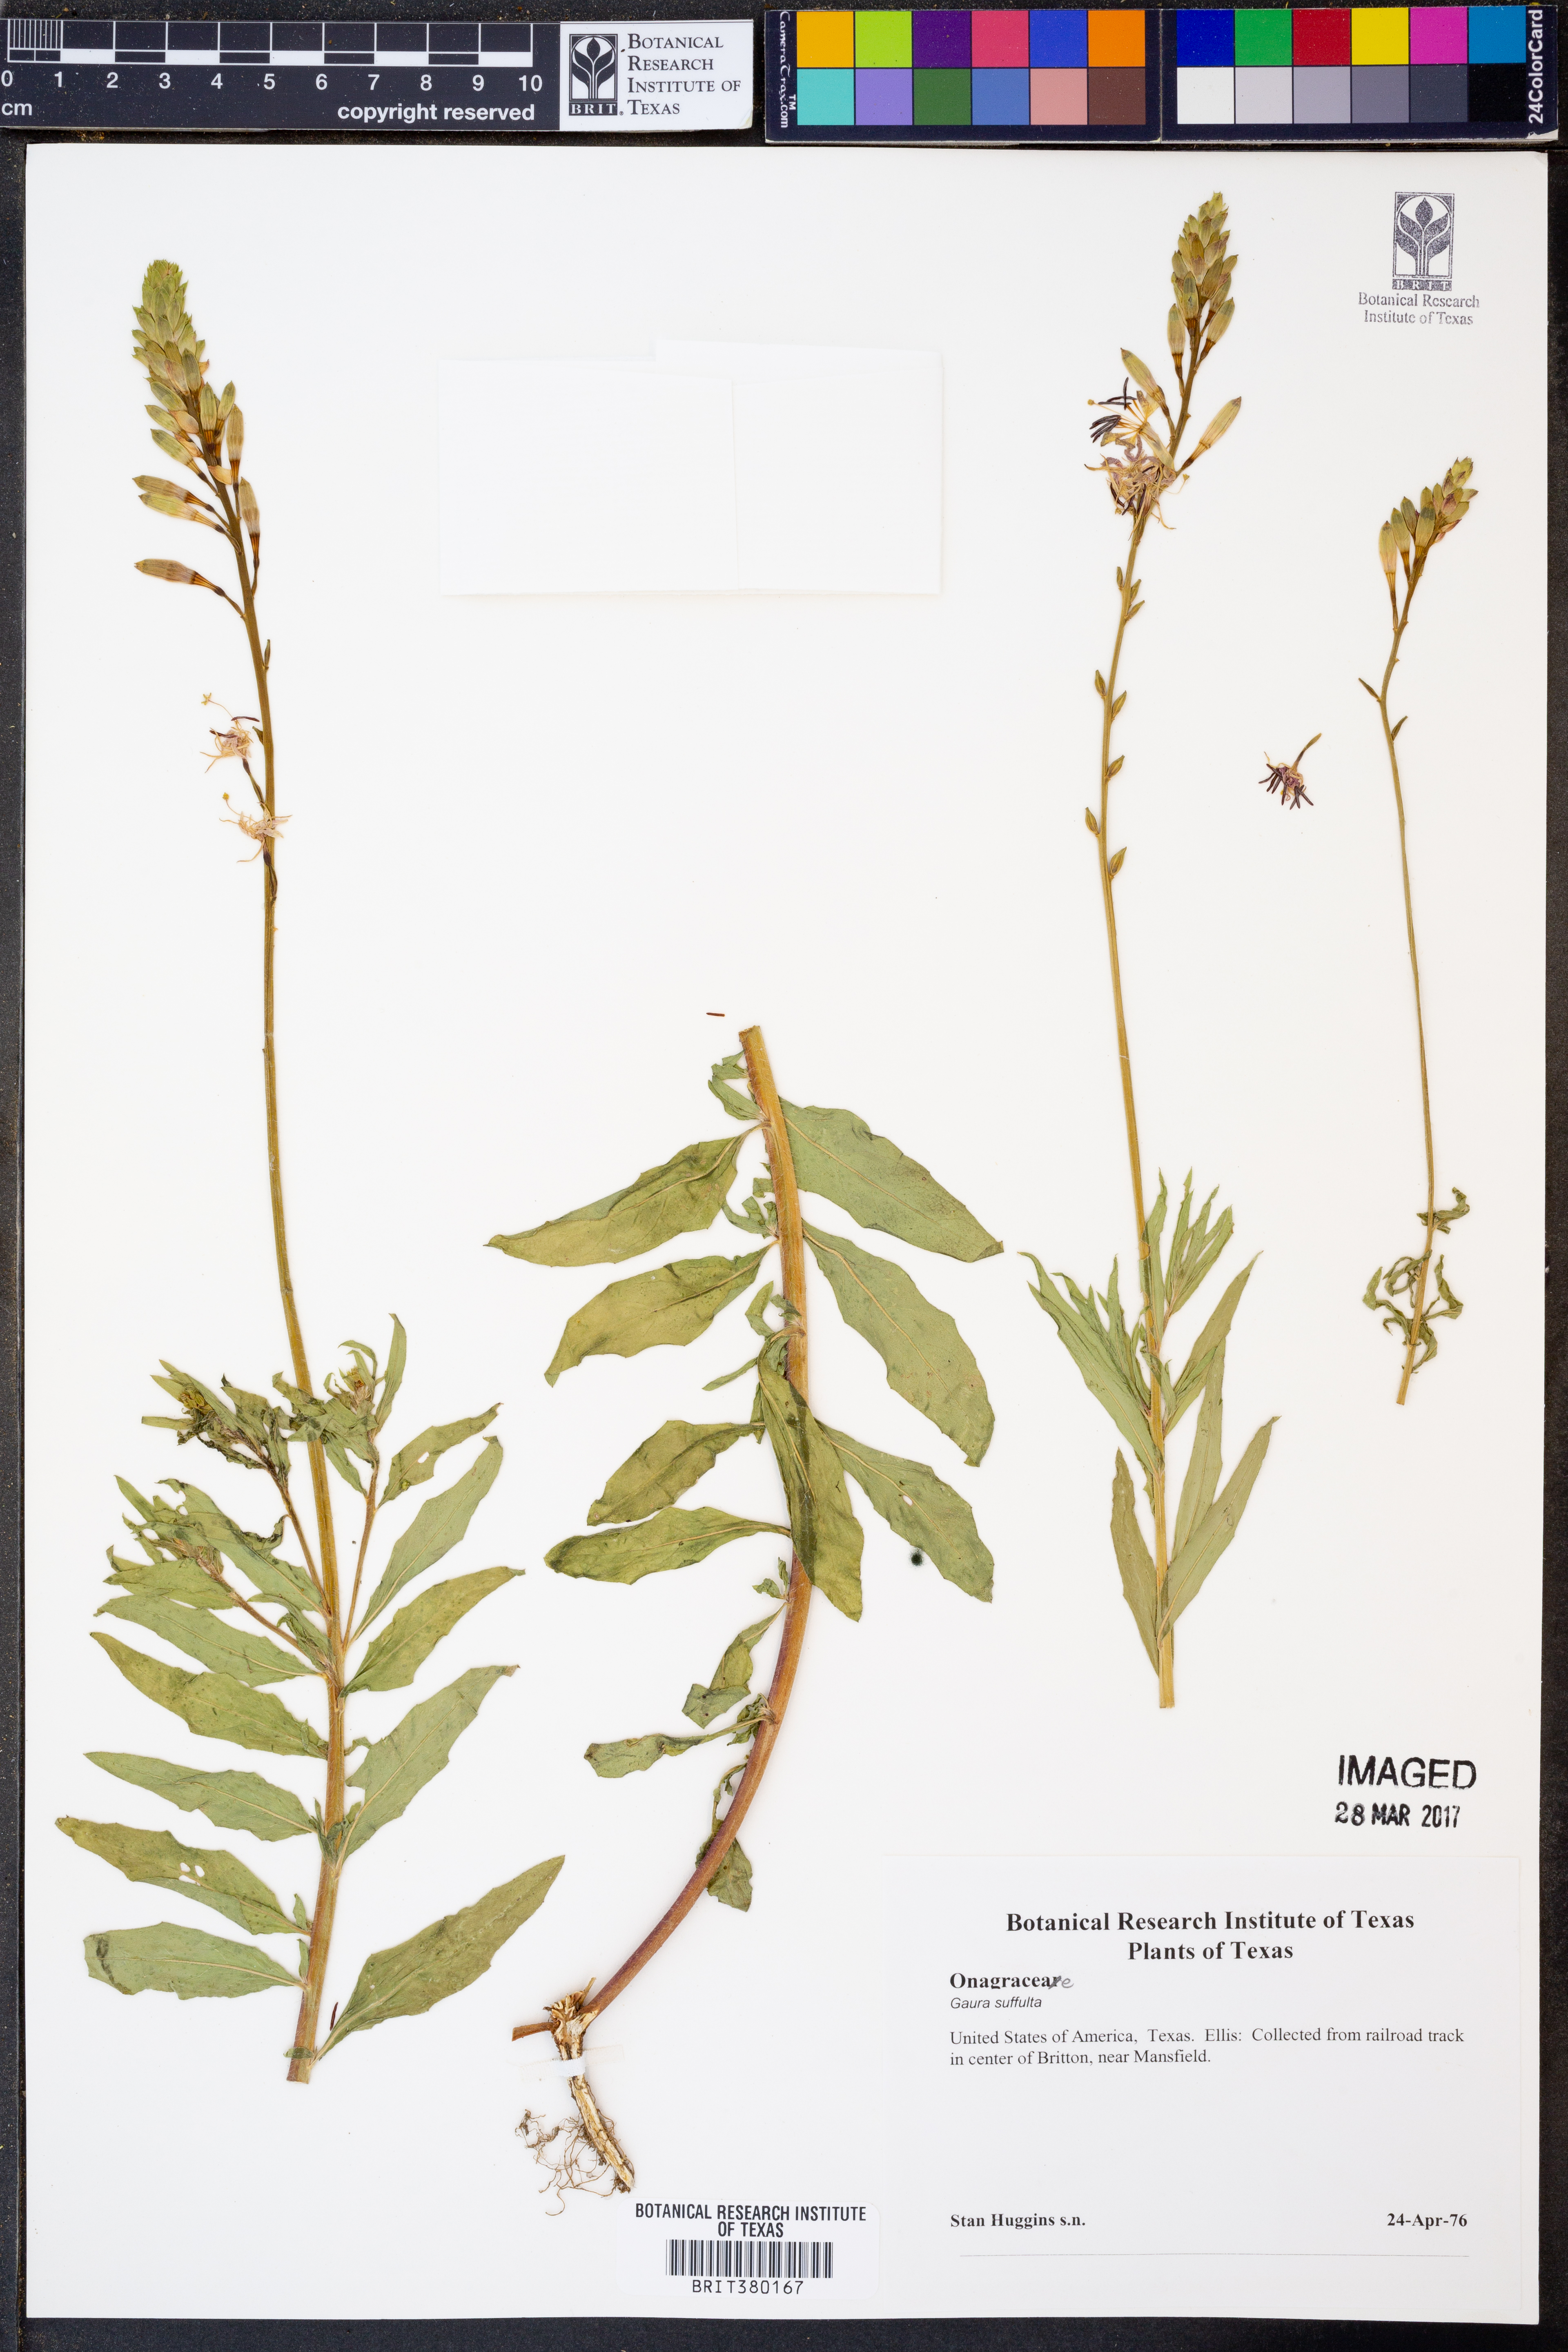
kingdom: Plantae
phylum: Tracheophyta
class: Magnoliopsida
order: Myrtales
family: Onagraceae
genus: Oenothera
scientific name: Oenothera Gaura suffulta
